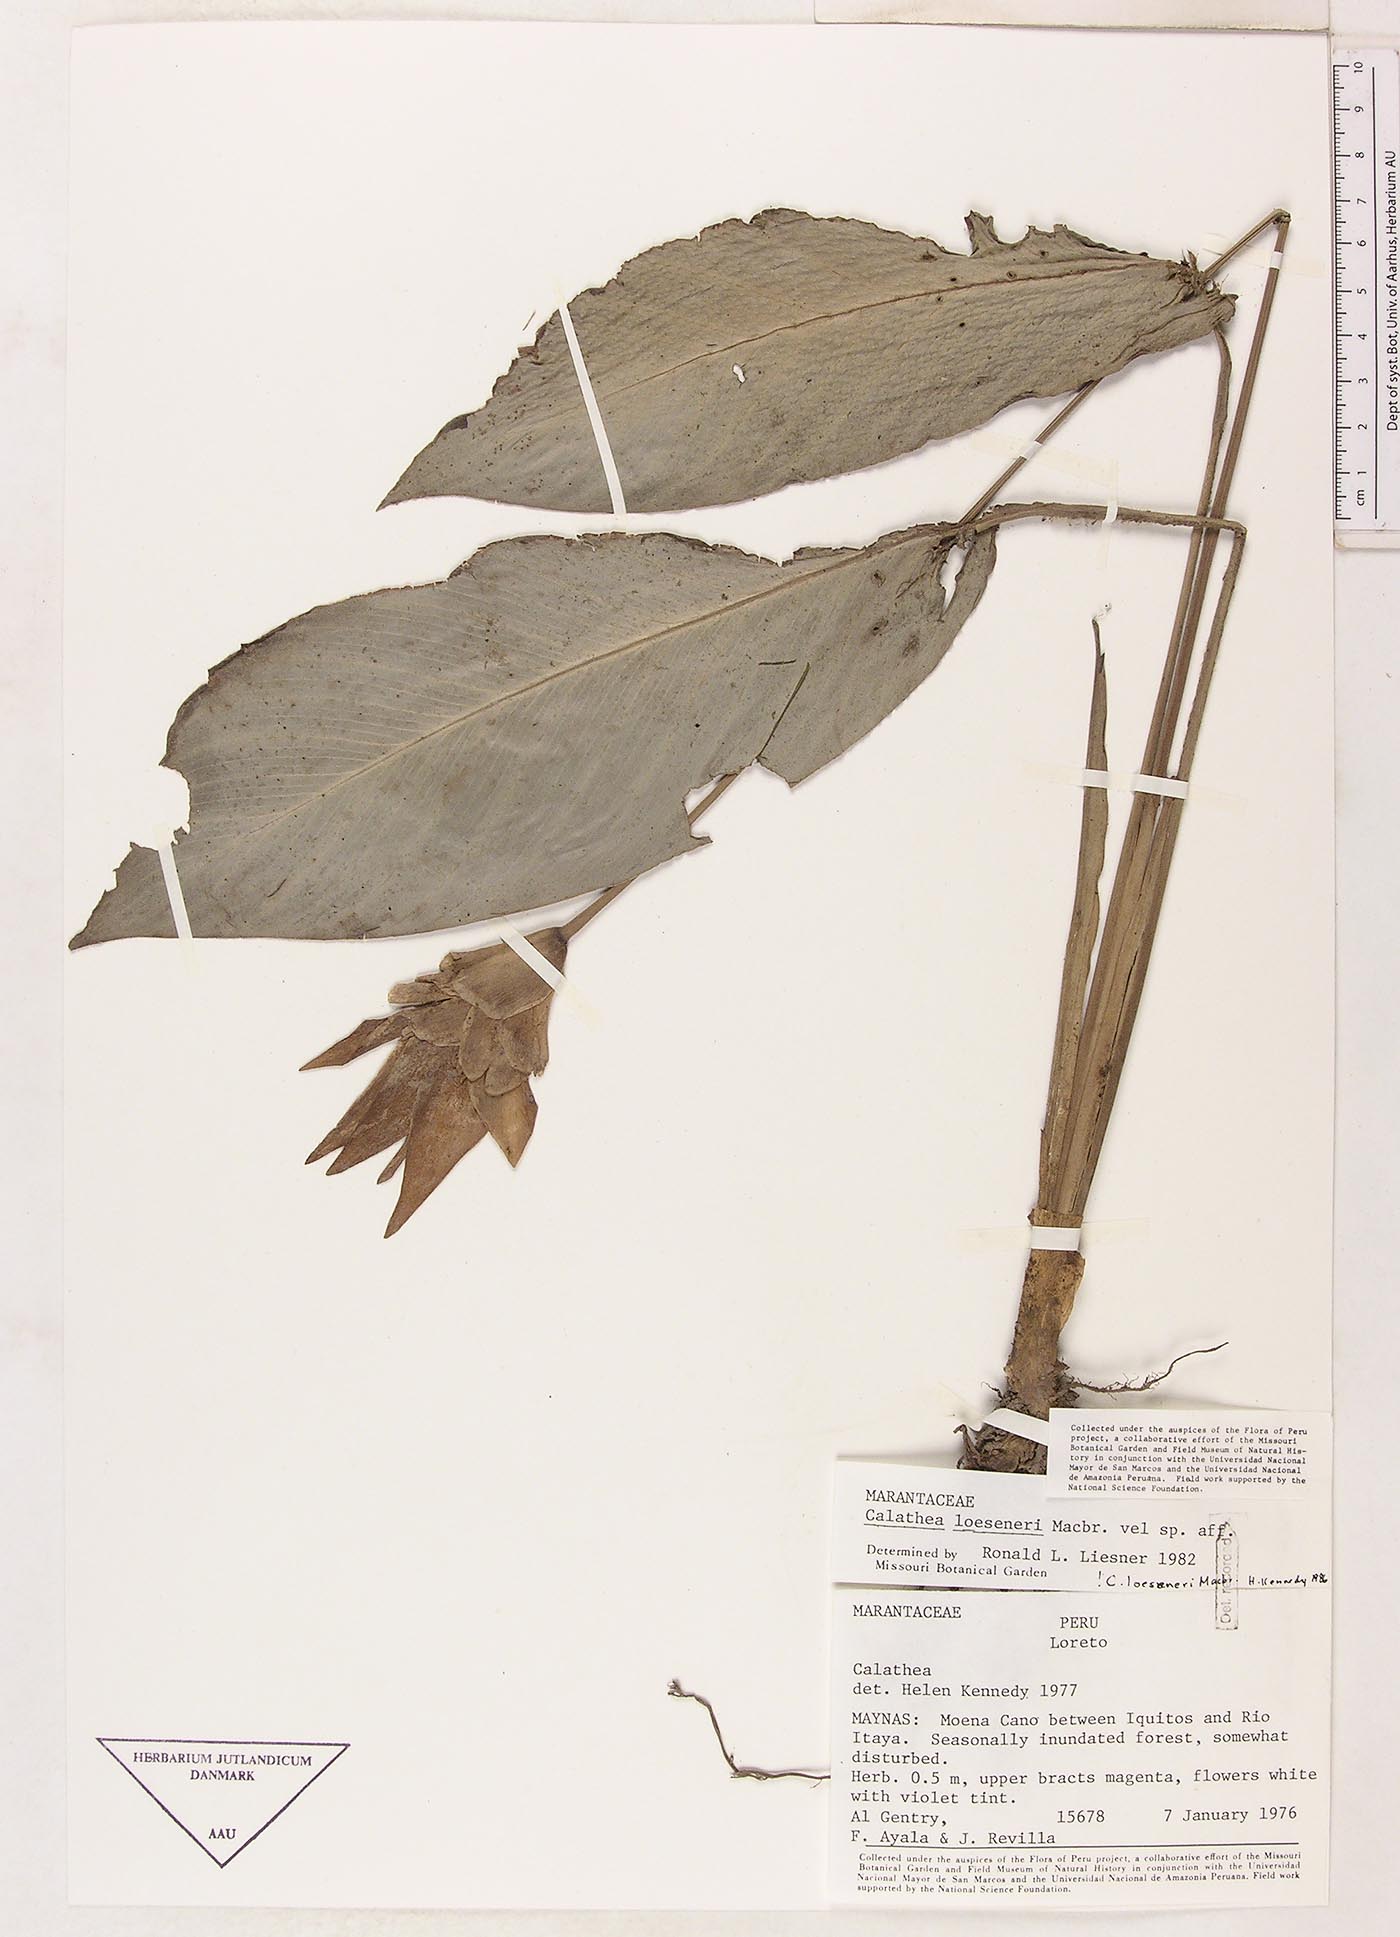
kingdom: Plantae
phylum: Tracheophyta
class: Liliopsida
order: Zingiberales
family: Marantaceae
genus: Goeppertia
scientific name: Goeppertia loeseneri
